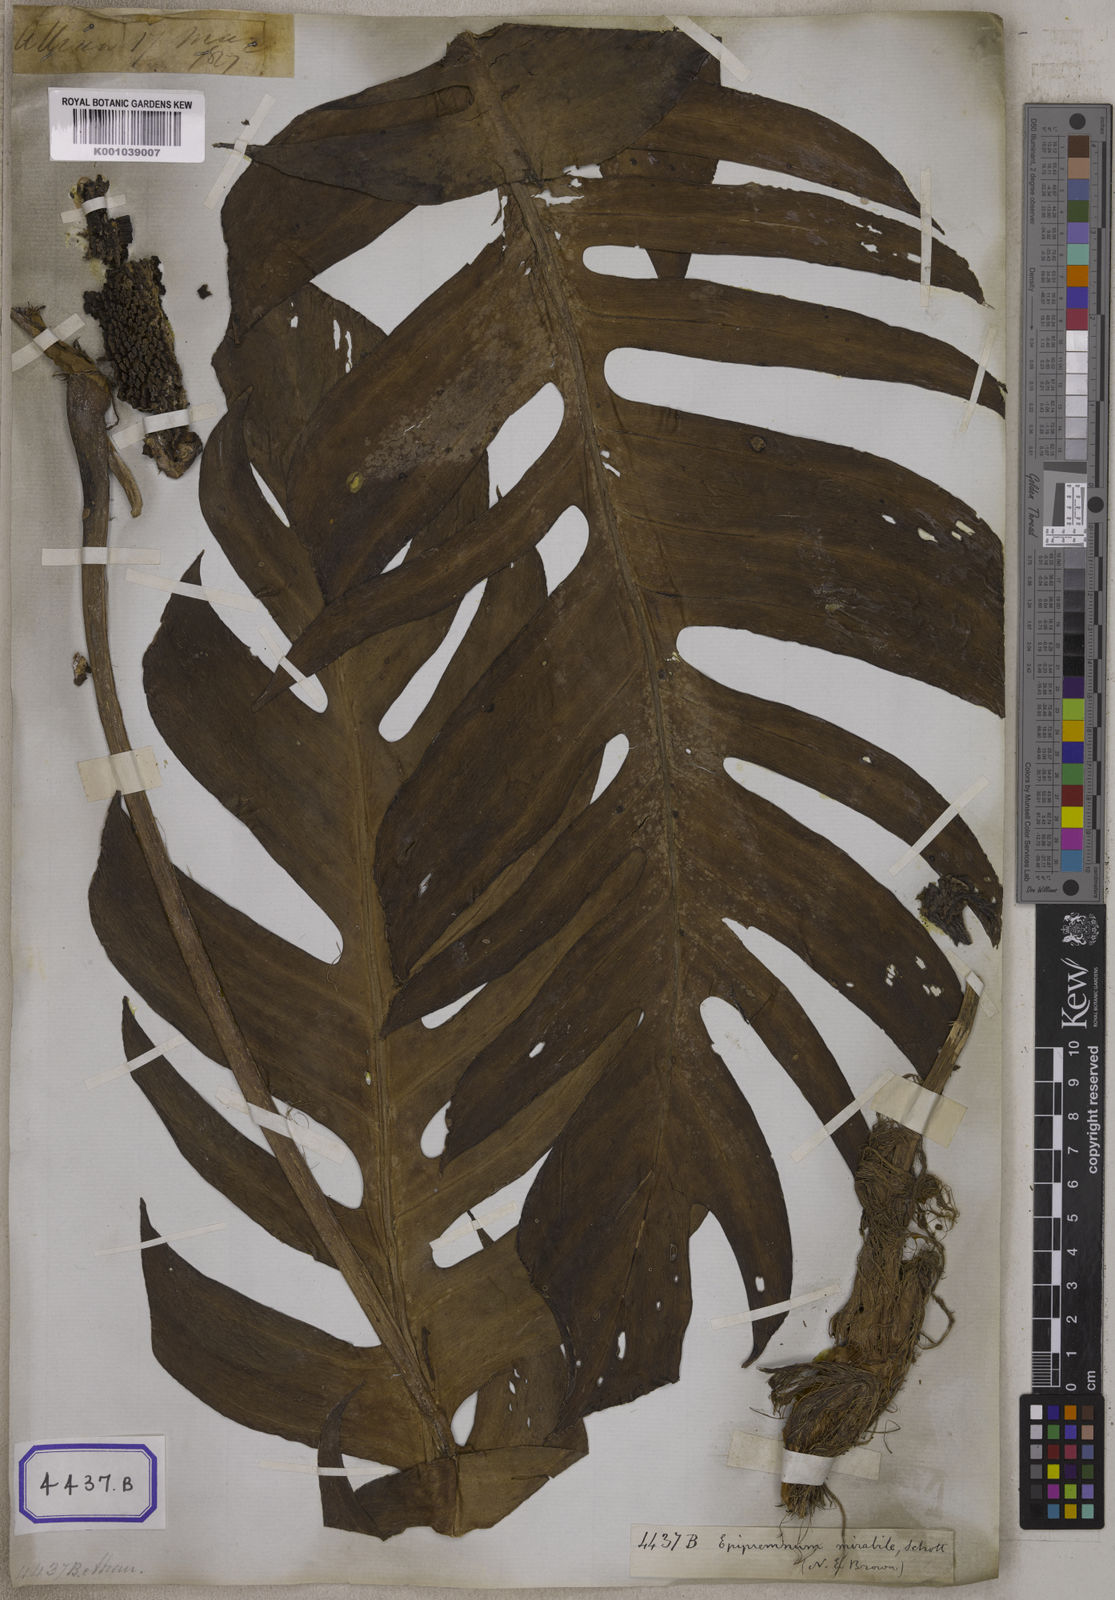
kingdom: Plantae
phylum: Tracheophyta
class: Liliopsida
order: Alismatales
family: Araceae
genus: Epipremnum
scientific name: Epipremnum pinnatum
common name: Centipede tongavine
